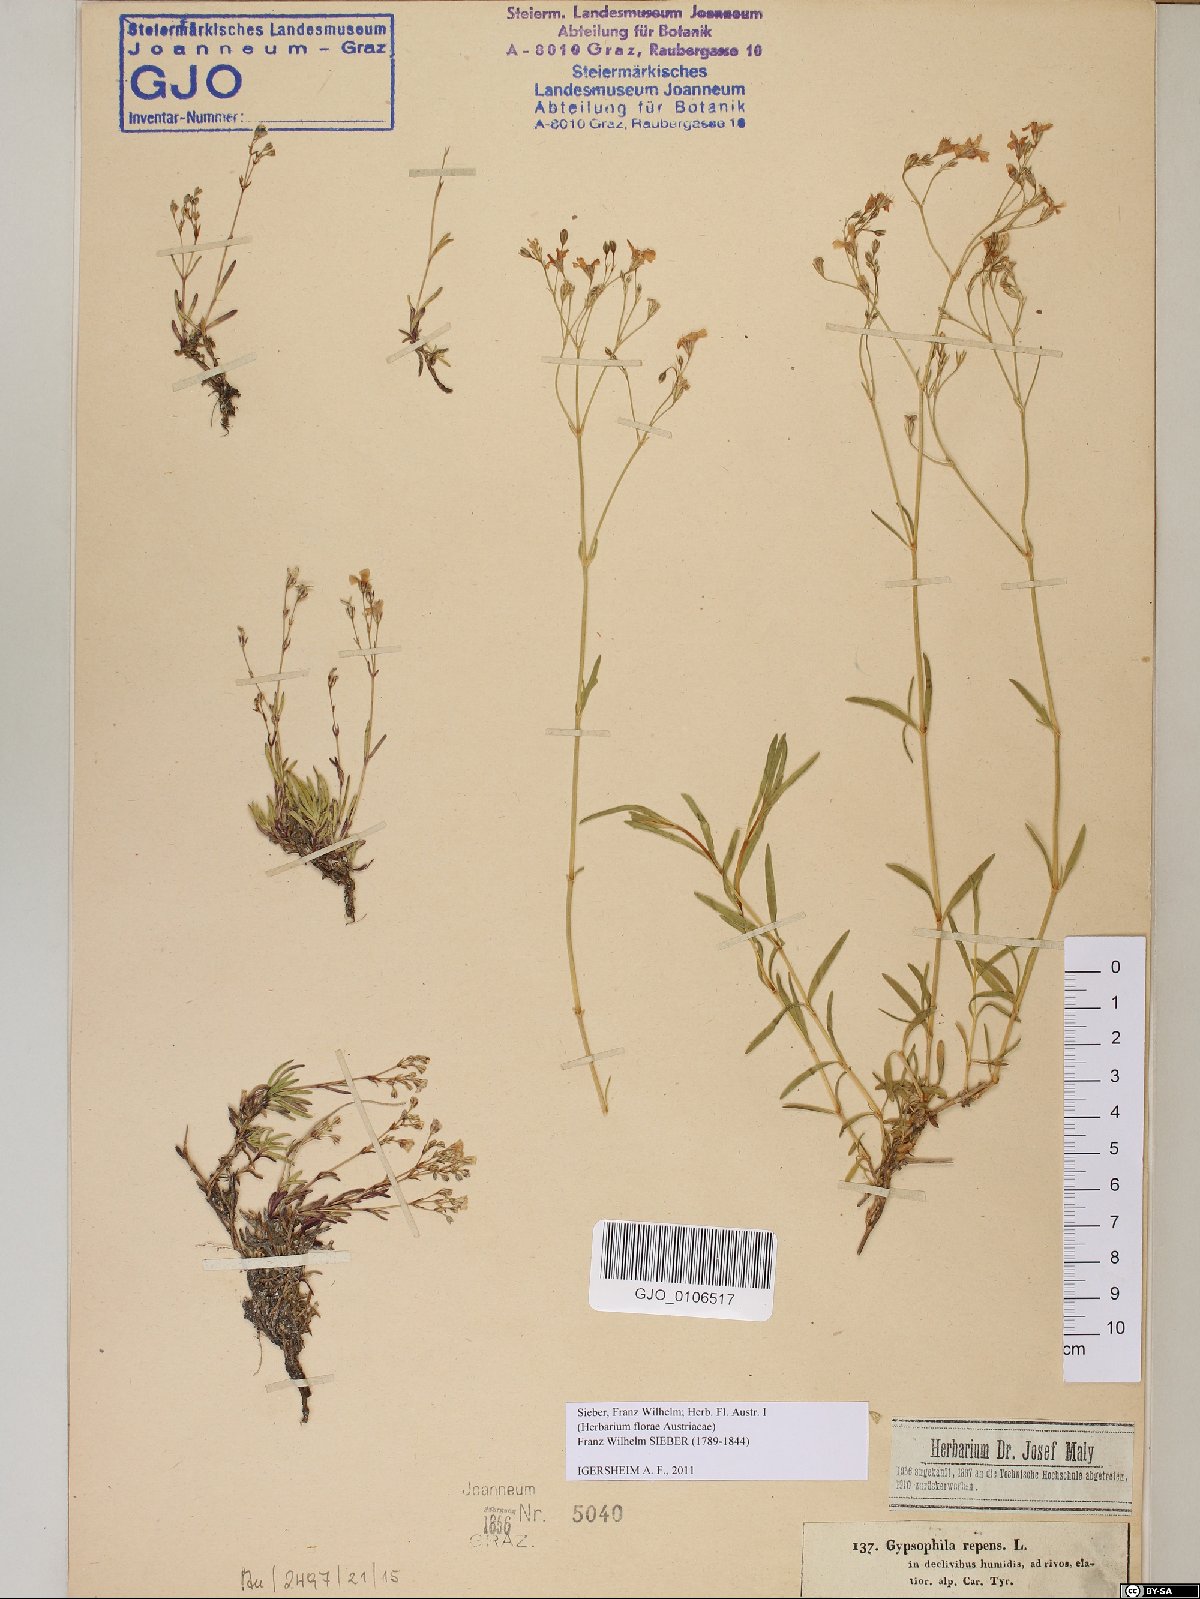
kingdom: Plantae
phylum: Tracheophyta
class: Magnoliopsida
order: Caryophyllales
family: Caryophyllaceae
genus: Gypsophila
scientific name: Gypsophila repens
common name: Creeping baby's-breath
